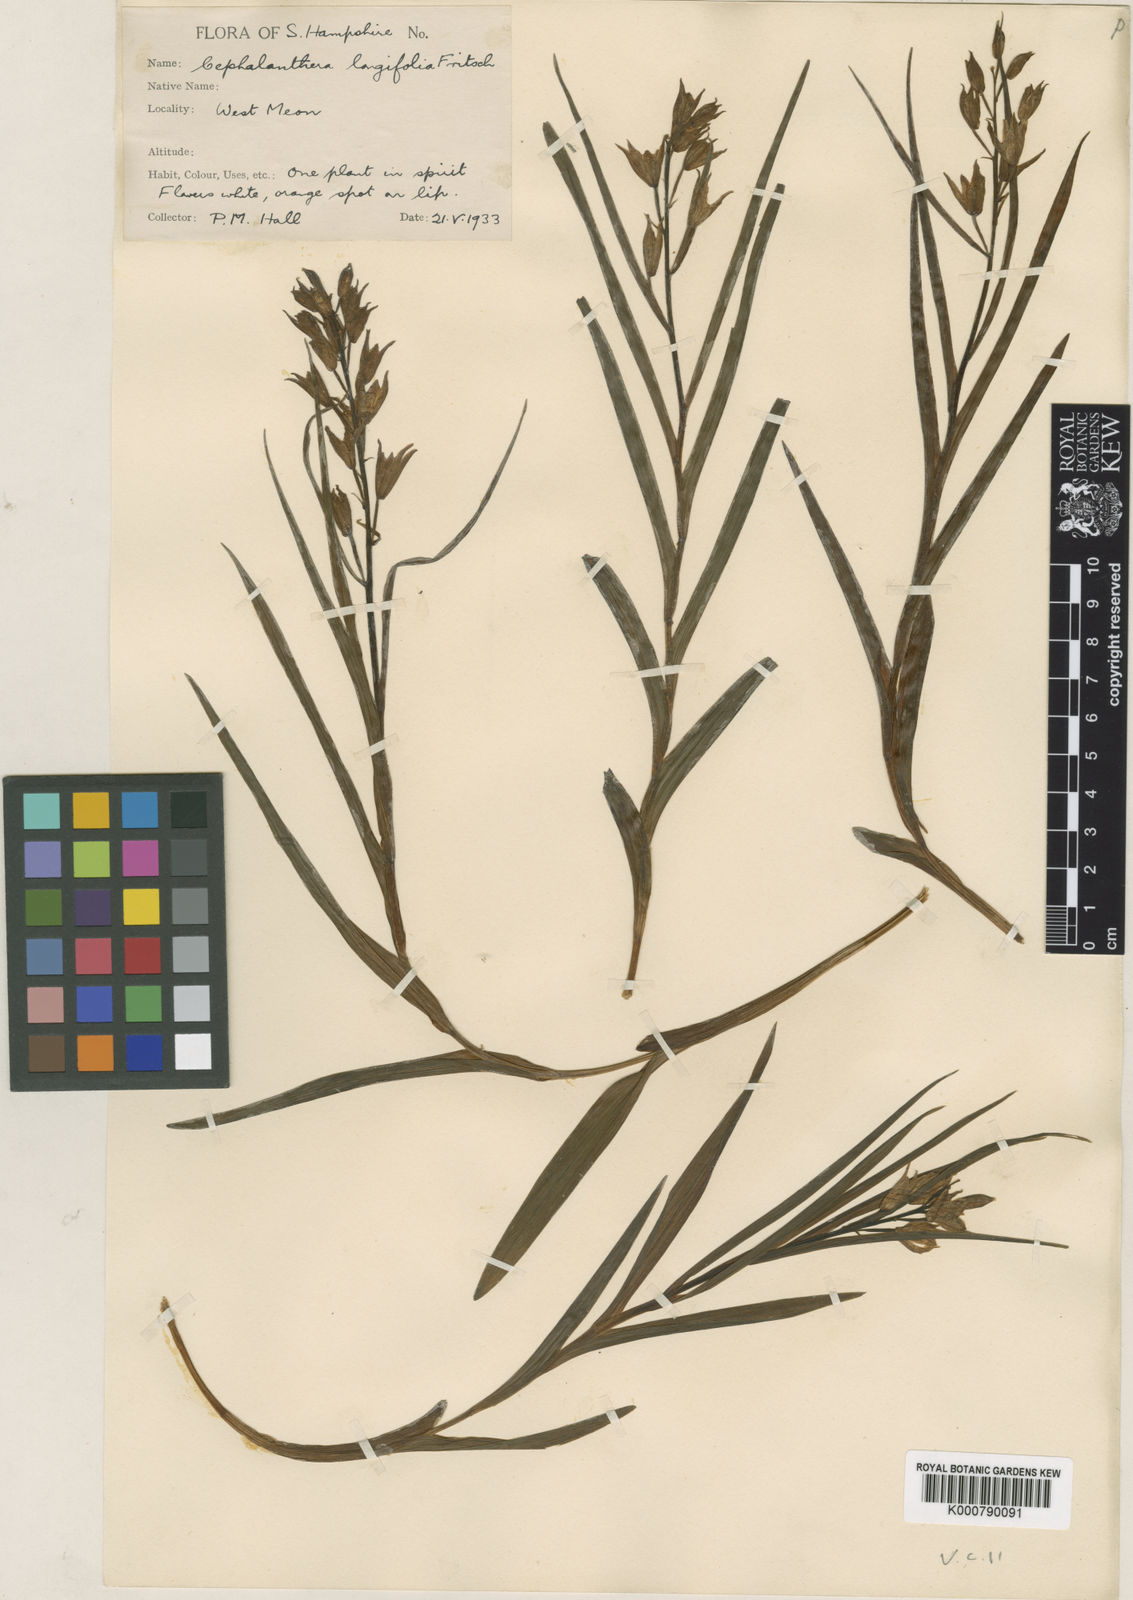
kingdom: Plantae
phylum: Tracheophyta
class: Liliopsida
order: Asparagales
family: Orchidaceae
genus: Cephalanthera
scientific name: Cephalanthera longifolia
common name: Narrow-leaved helleborine
